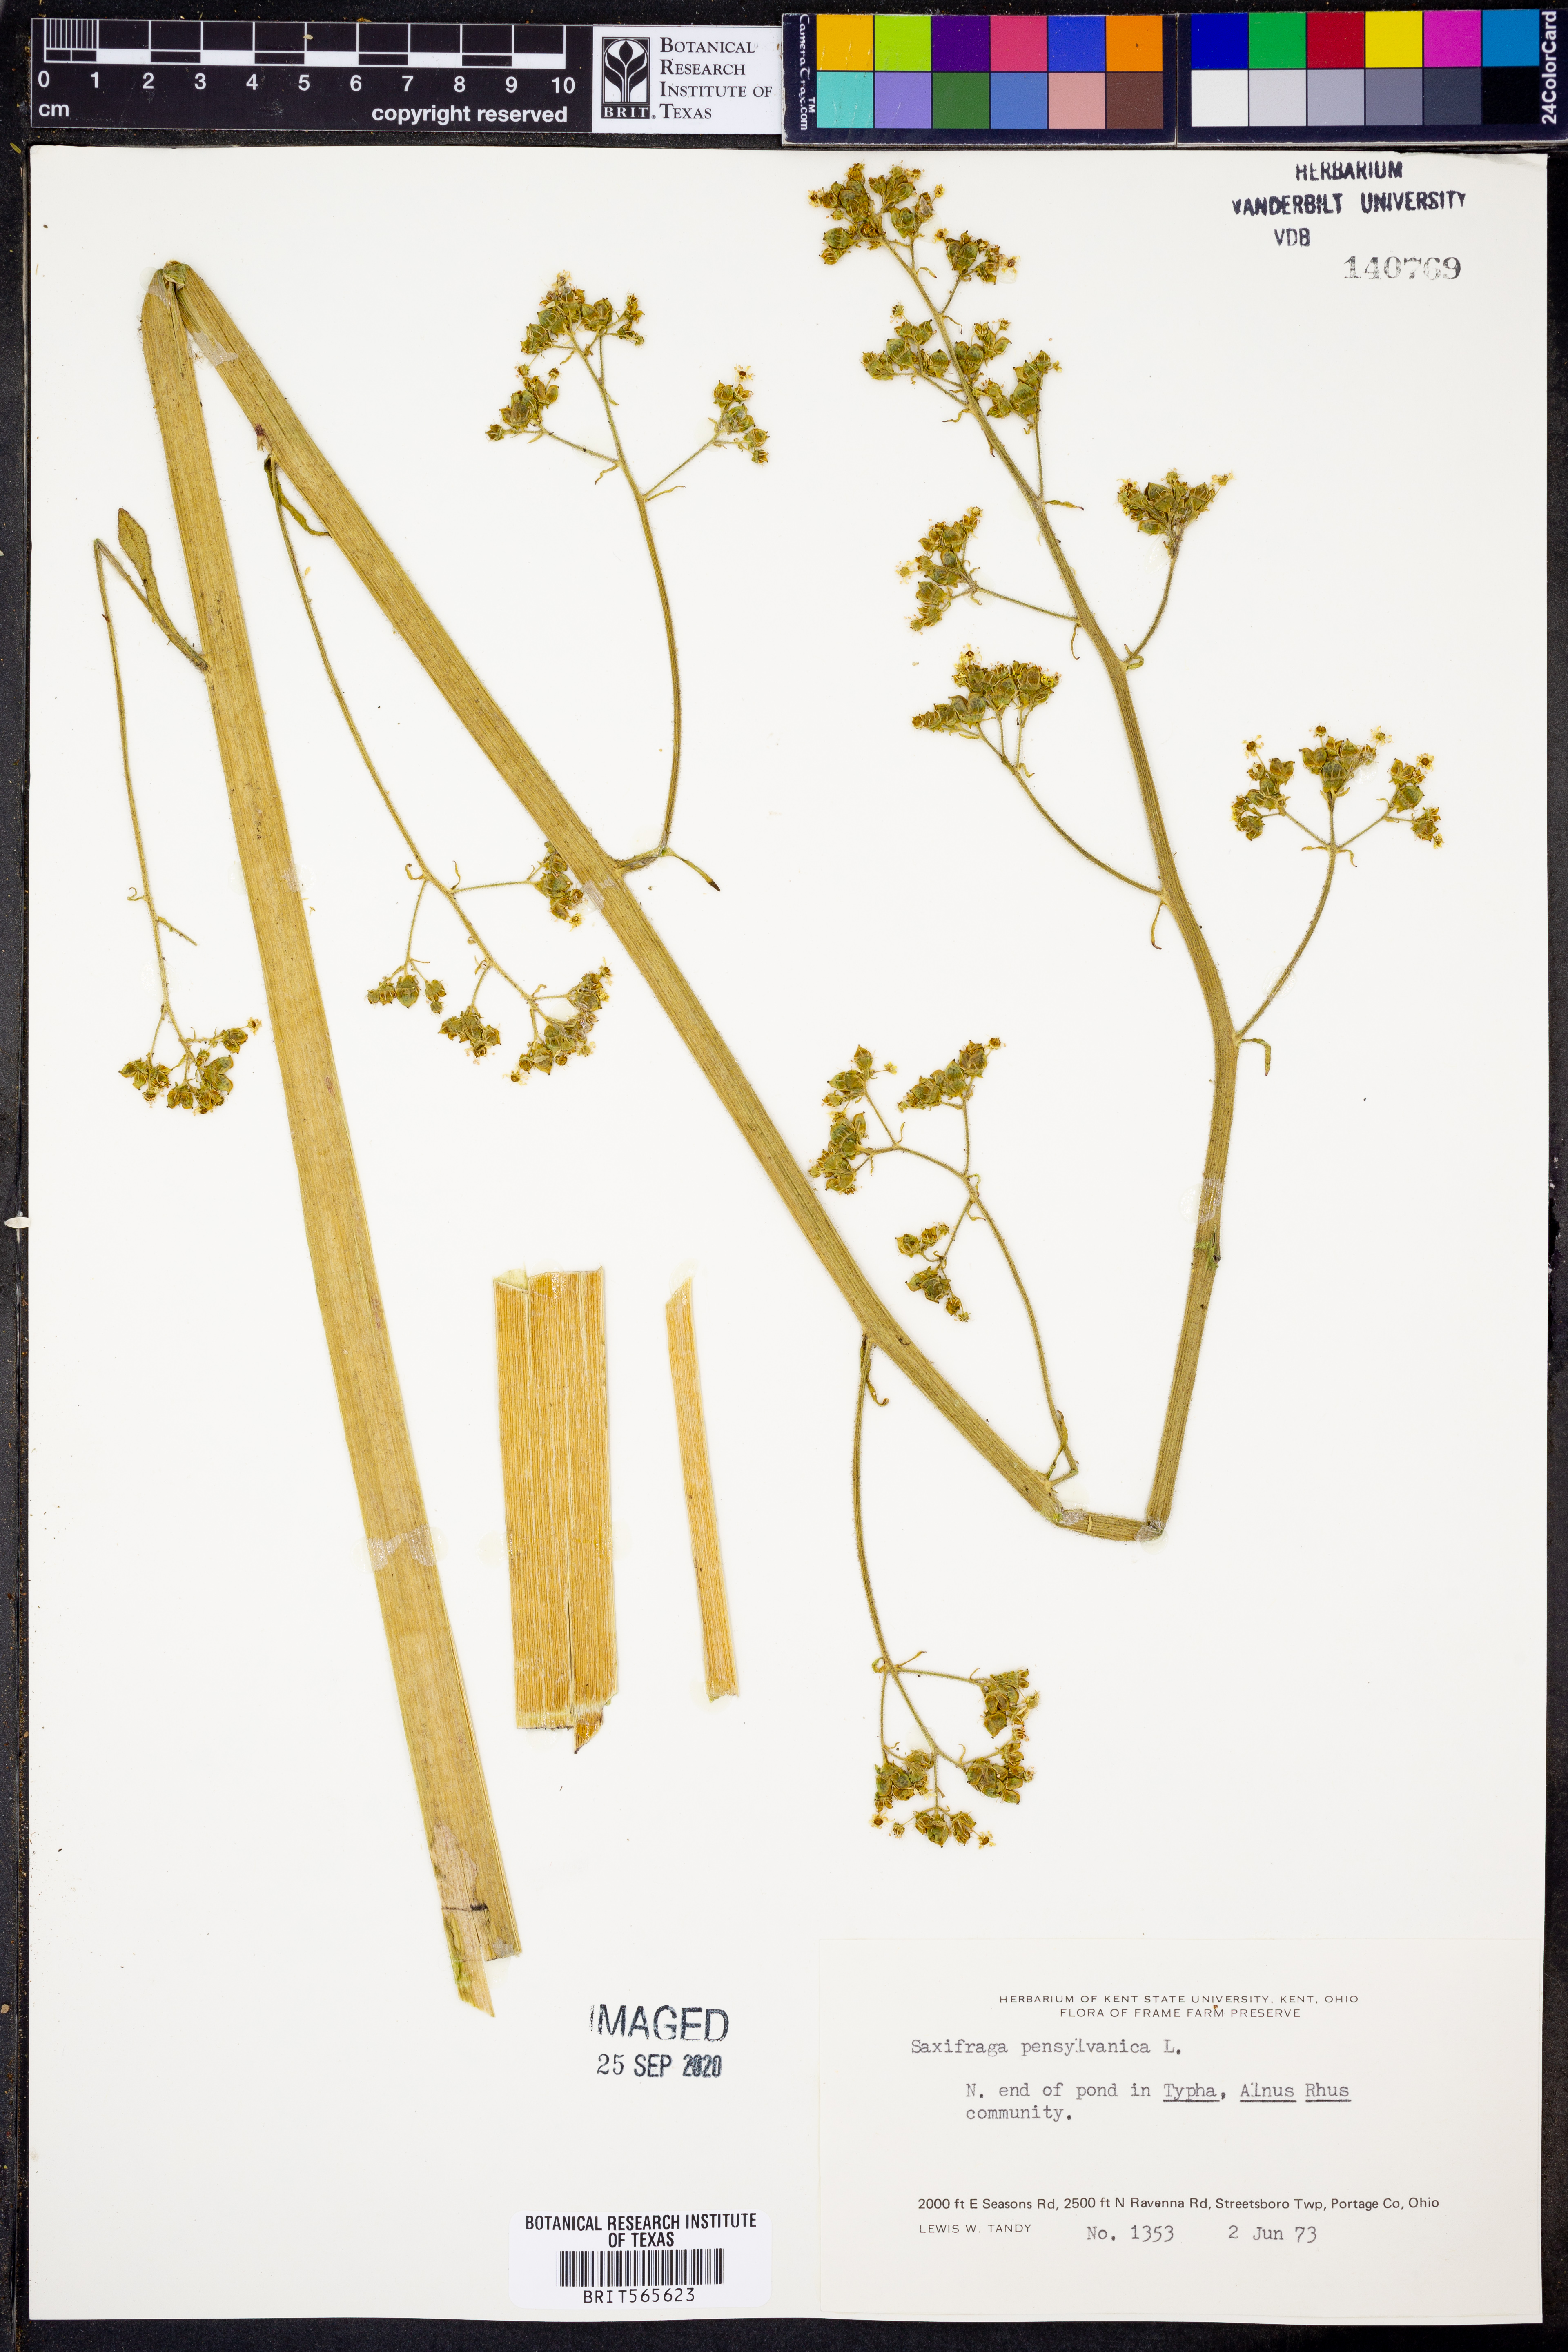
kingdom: Plantae
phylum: Tracheophyta
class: Magnoliopsida
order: Saxifragales
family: Saxifragaceae
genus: Micranthes
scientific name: Micranthes pensylvanica
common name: Marsh saxifrage
